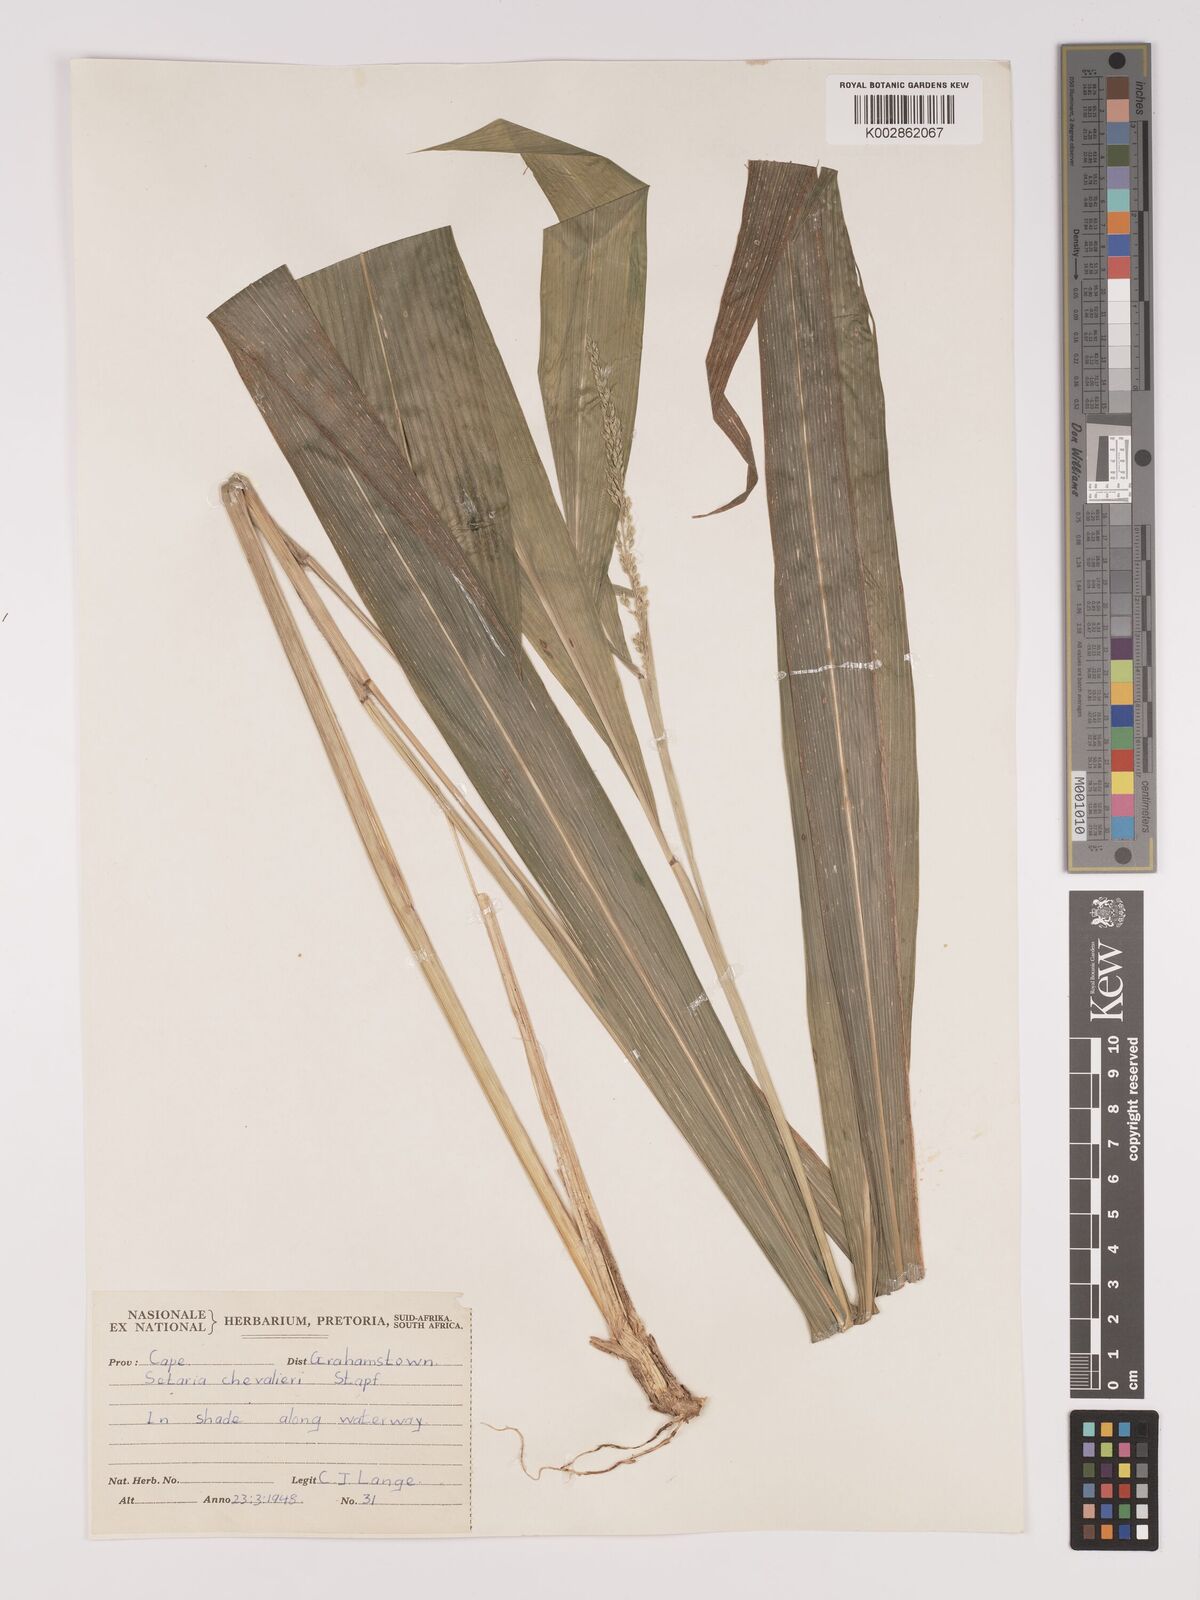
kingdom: Plantae
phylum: Tracheophyta
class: Liliopsida
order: Poales
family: Poaceae
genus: Setaria
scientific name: Setaria megaphylla
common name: Bigleaf bristlegrass
